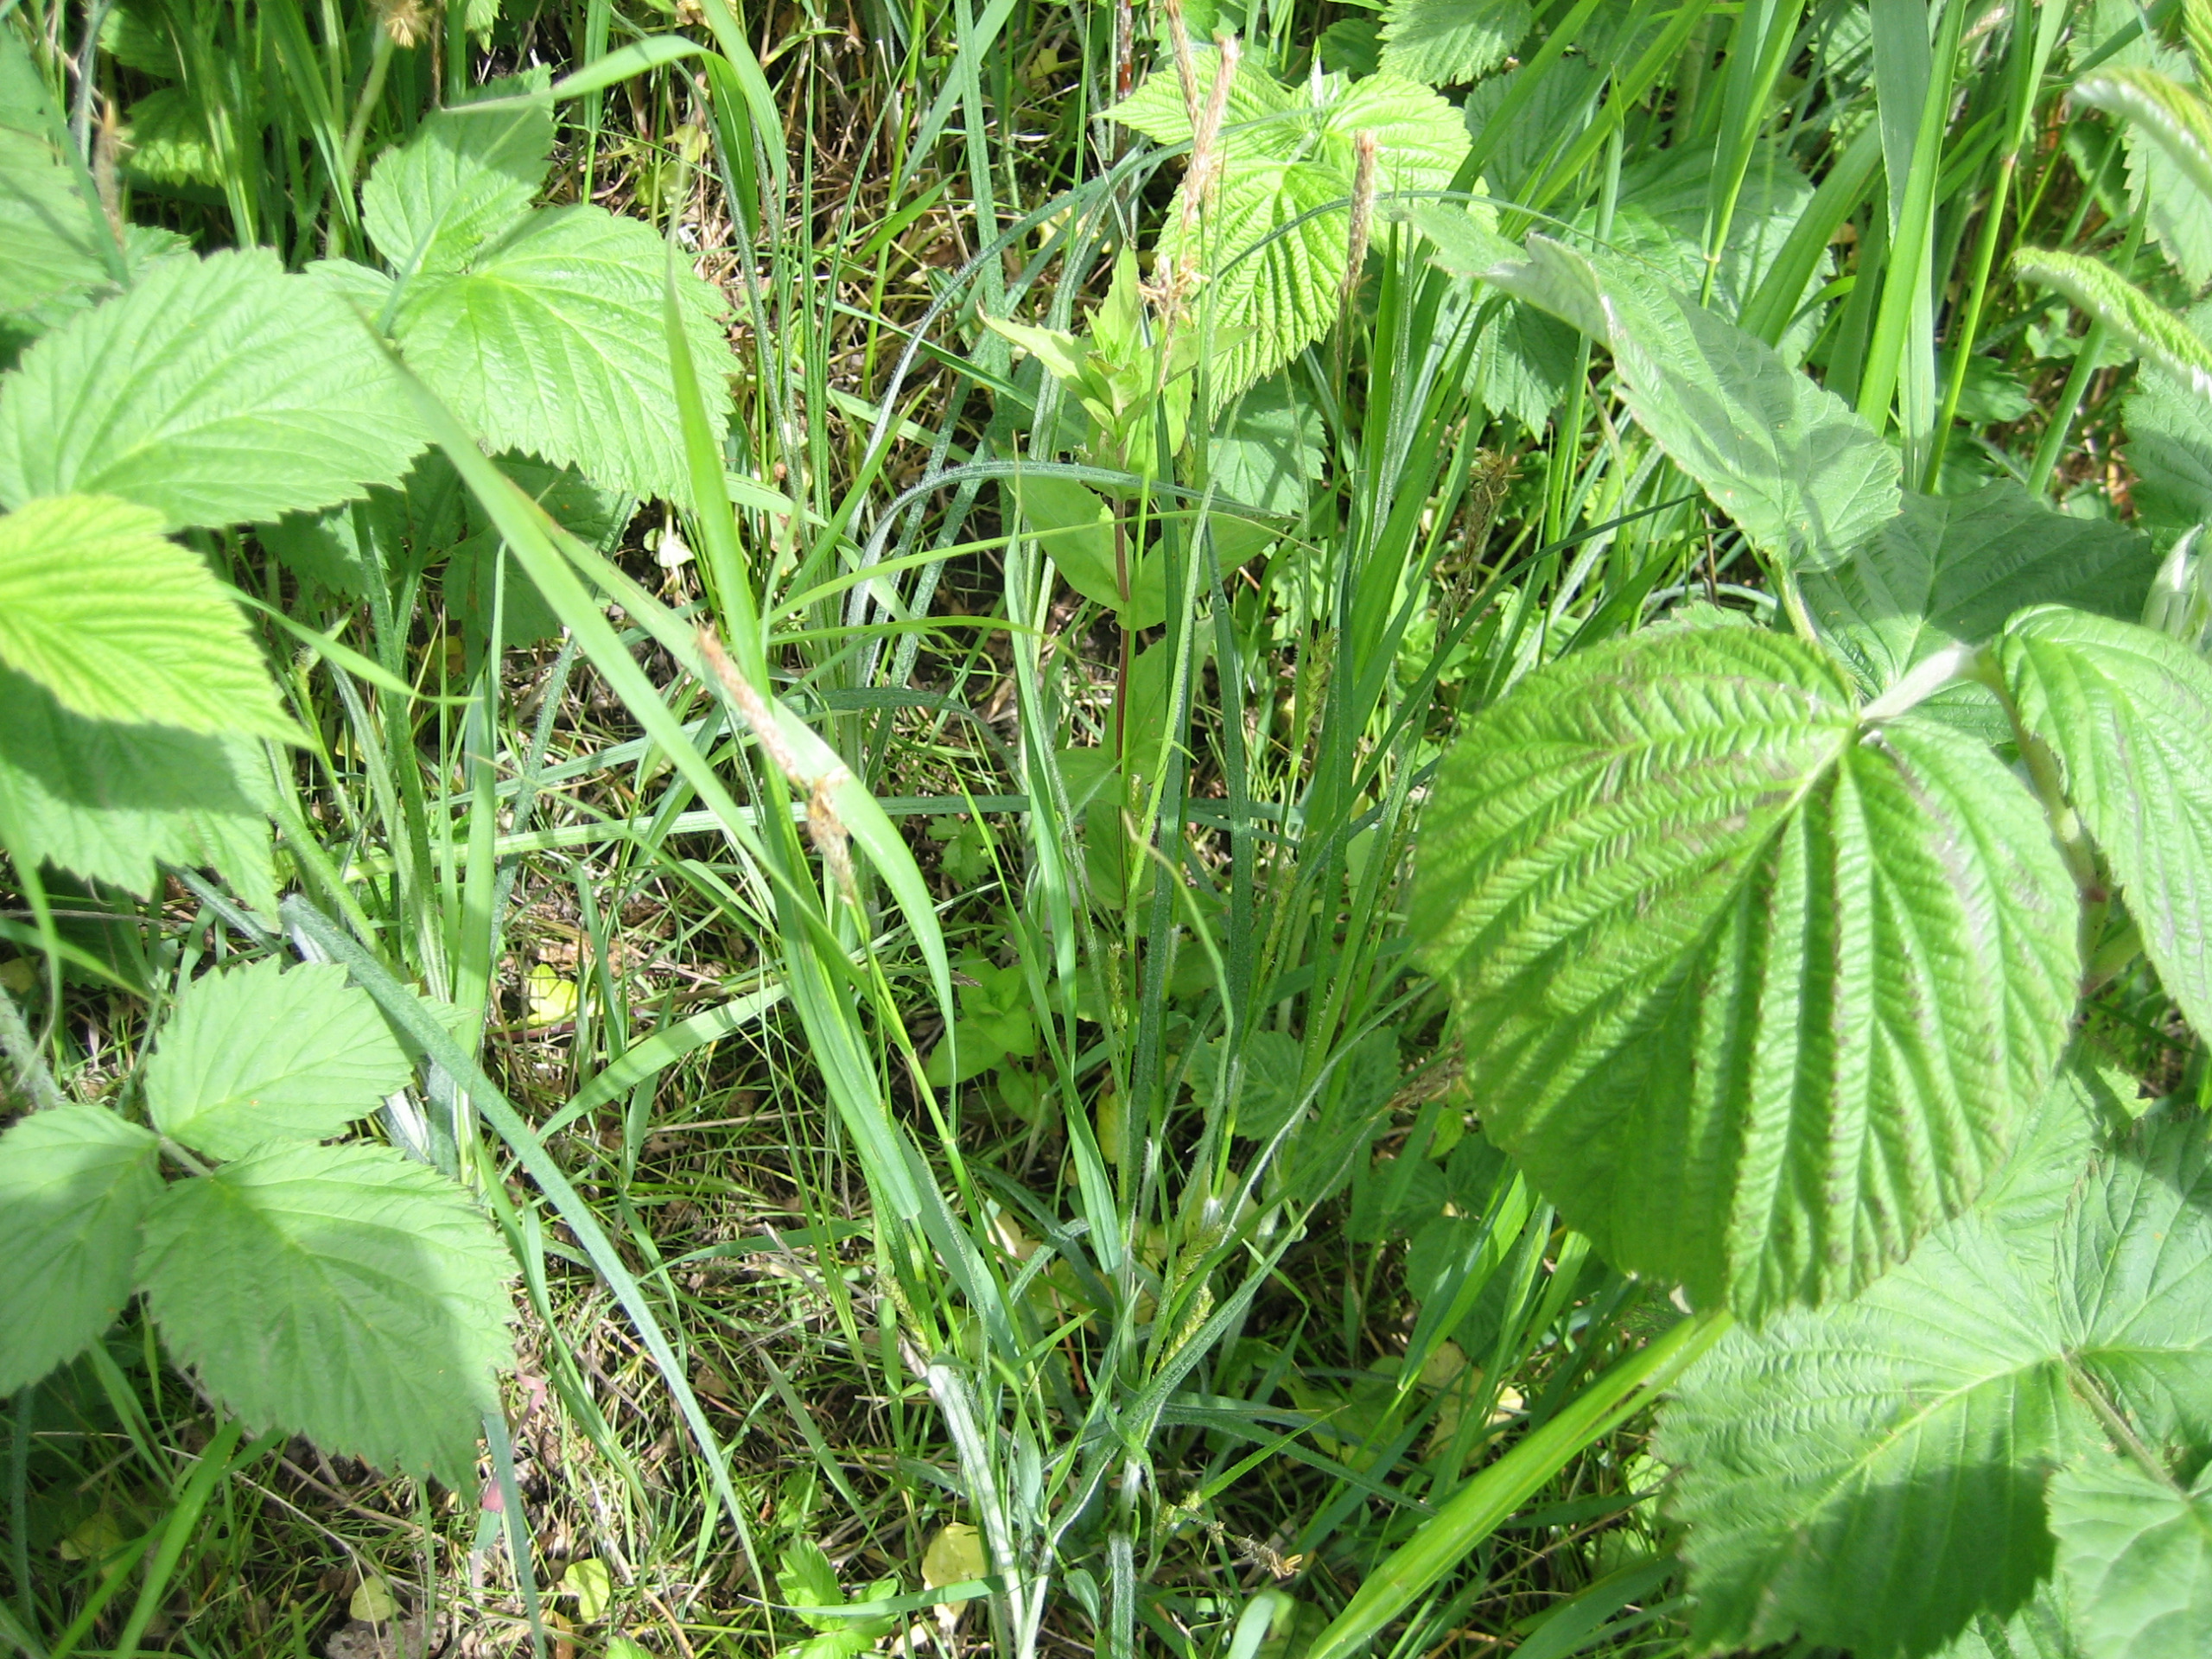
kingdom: Plantae
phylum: Tracheophyta
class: Liliopsida
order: Poales
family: Cyperaceae
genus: Carex
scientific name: Carex hirta
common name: Håret star
